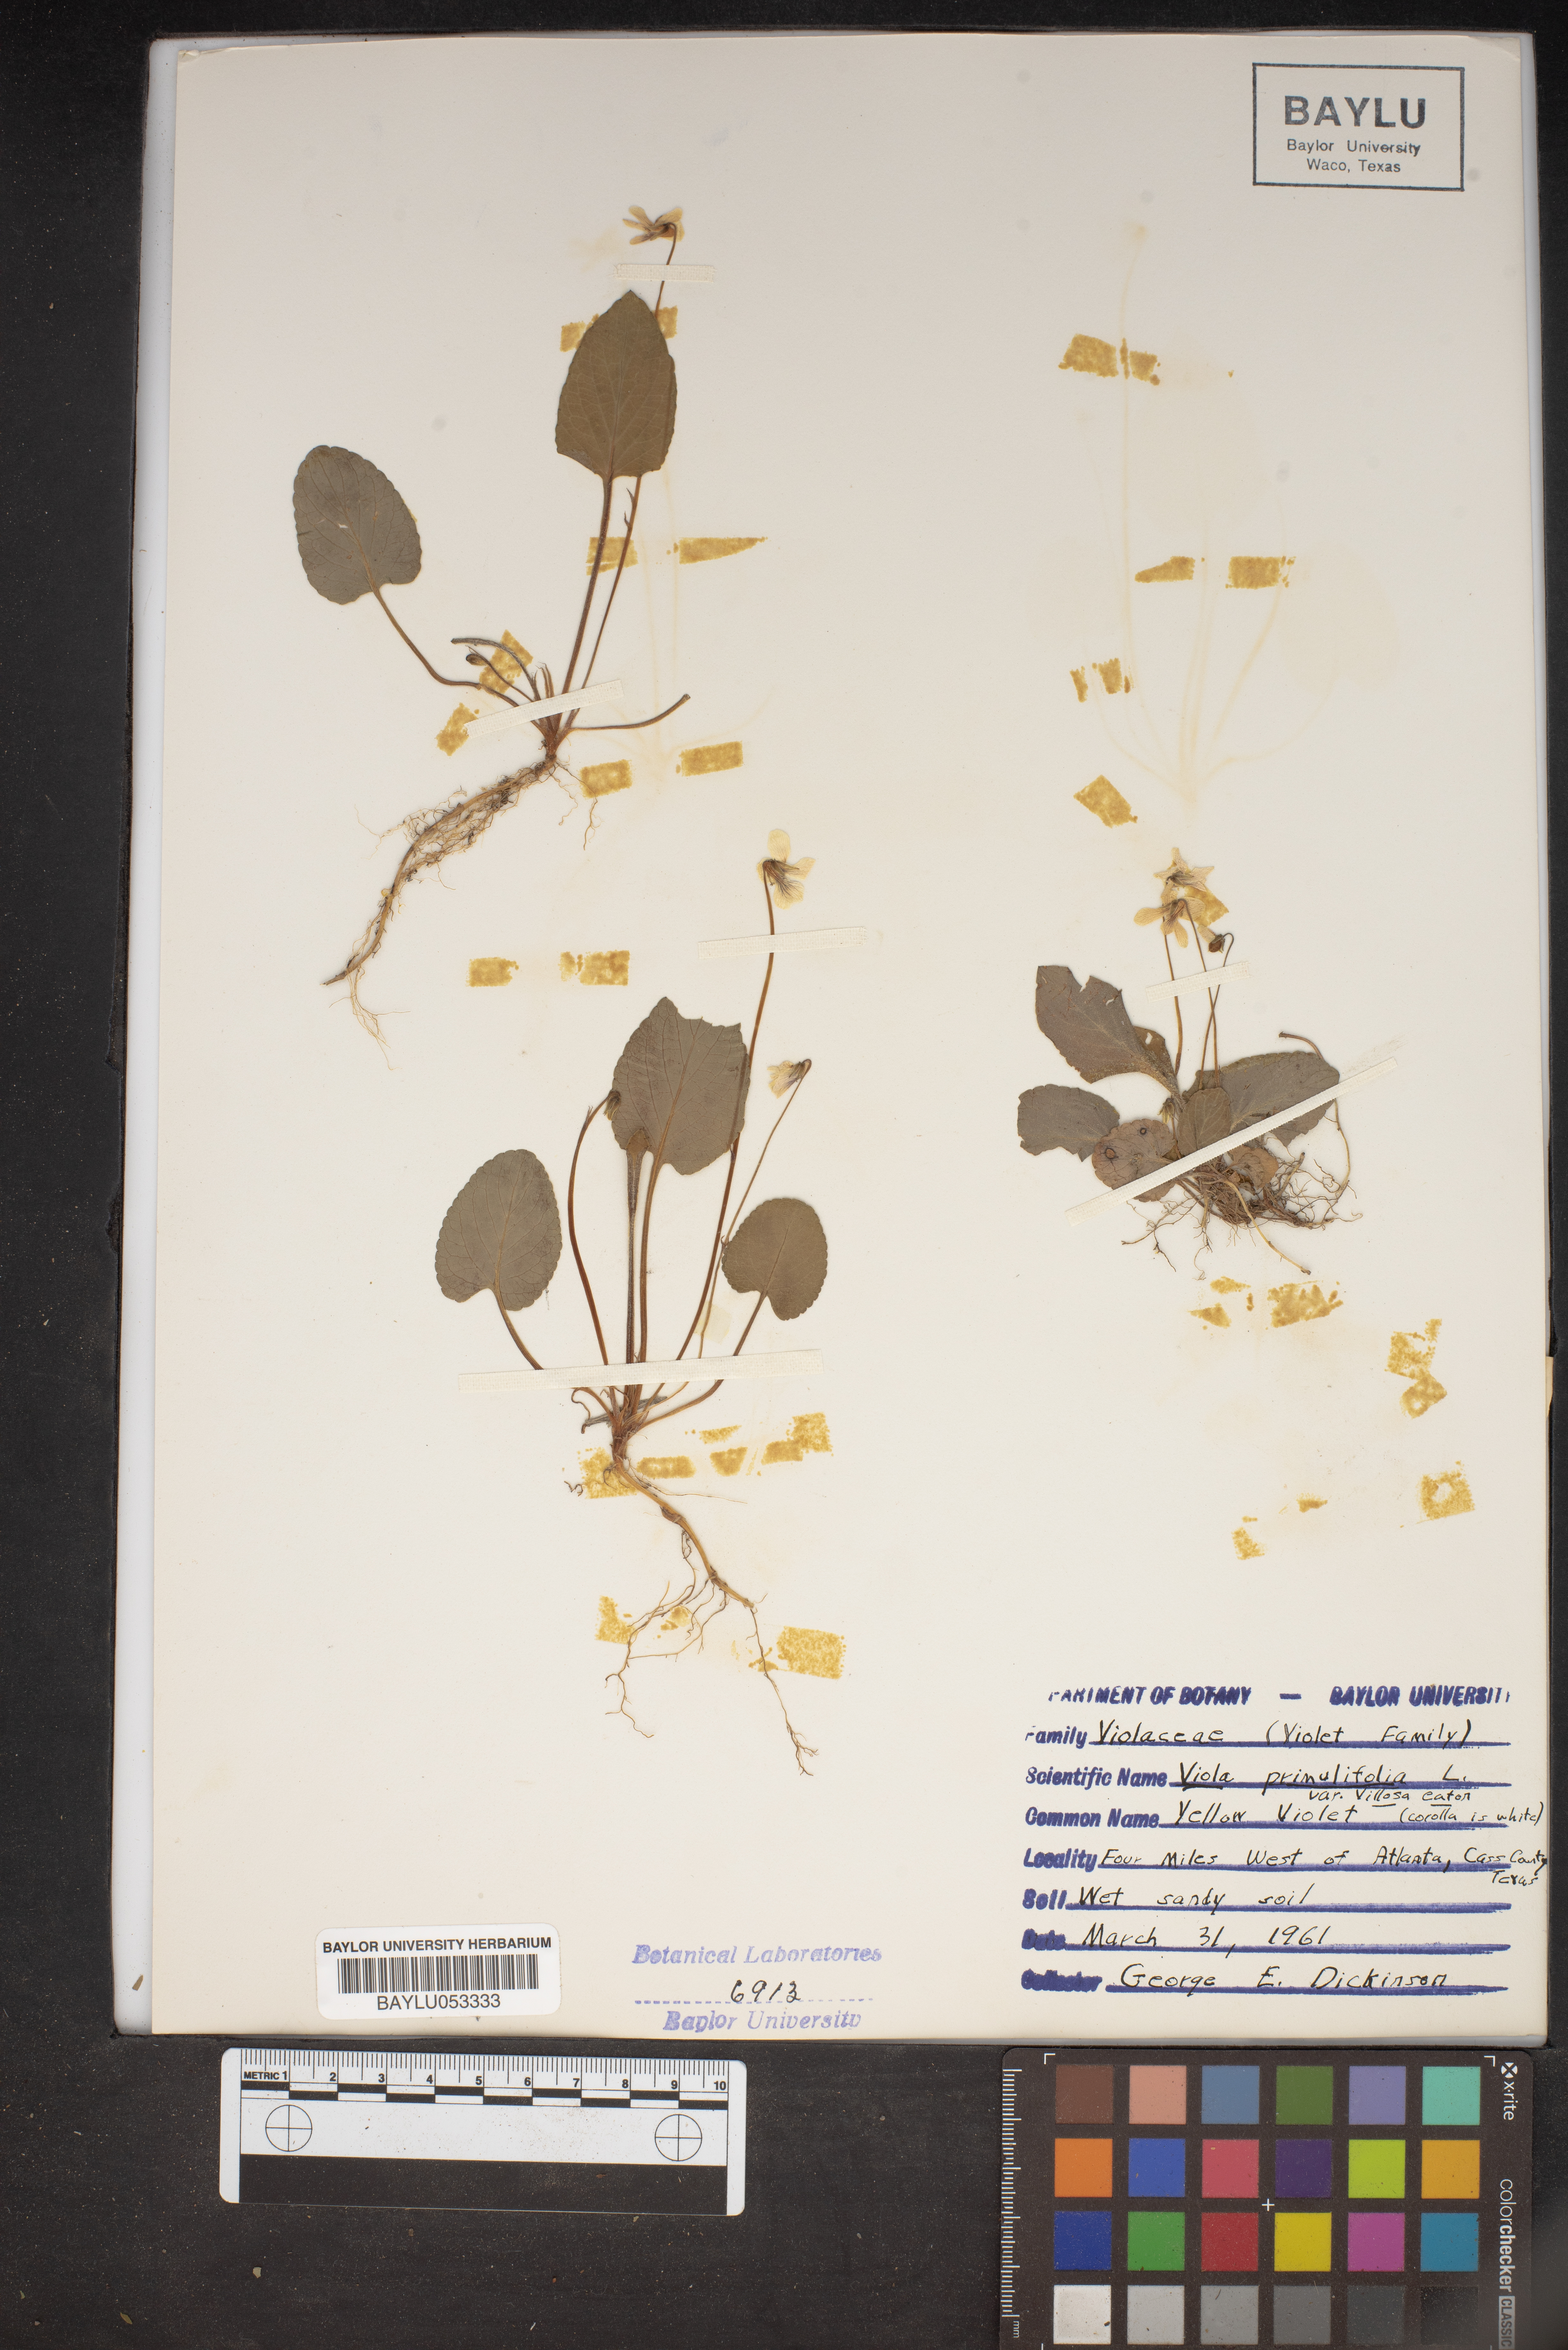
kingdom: Plantae
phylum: Tracheophyta
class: Magnoliopsida
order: Malpighiales
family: Violaceae
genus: Viola
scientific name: Viola primulifolia
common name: Primrose-leaf violet
